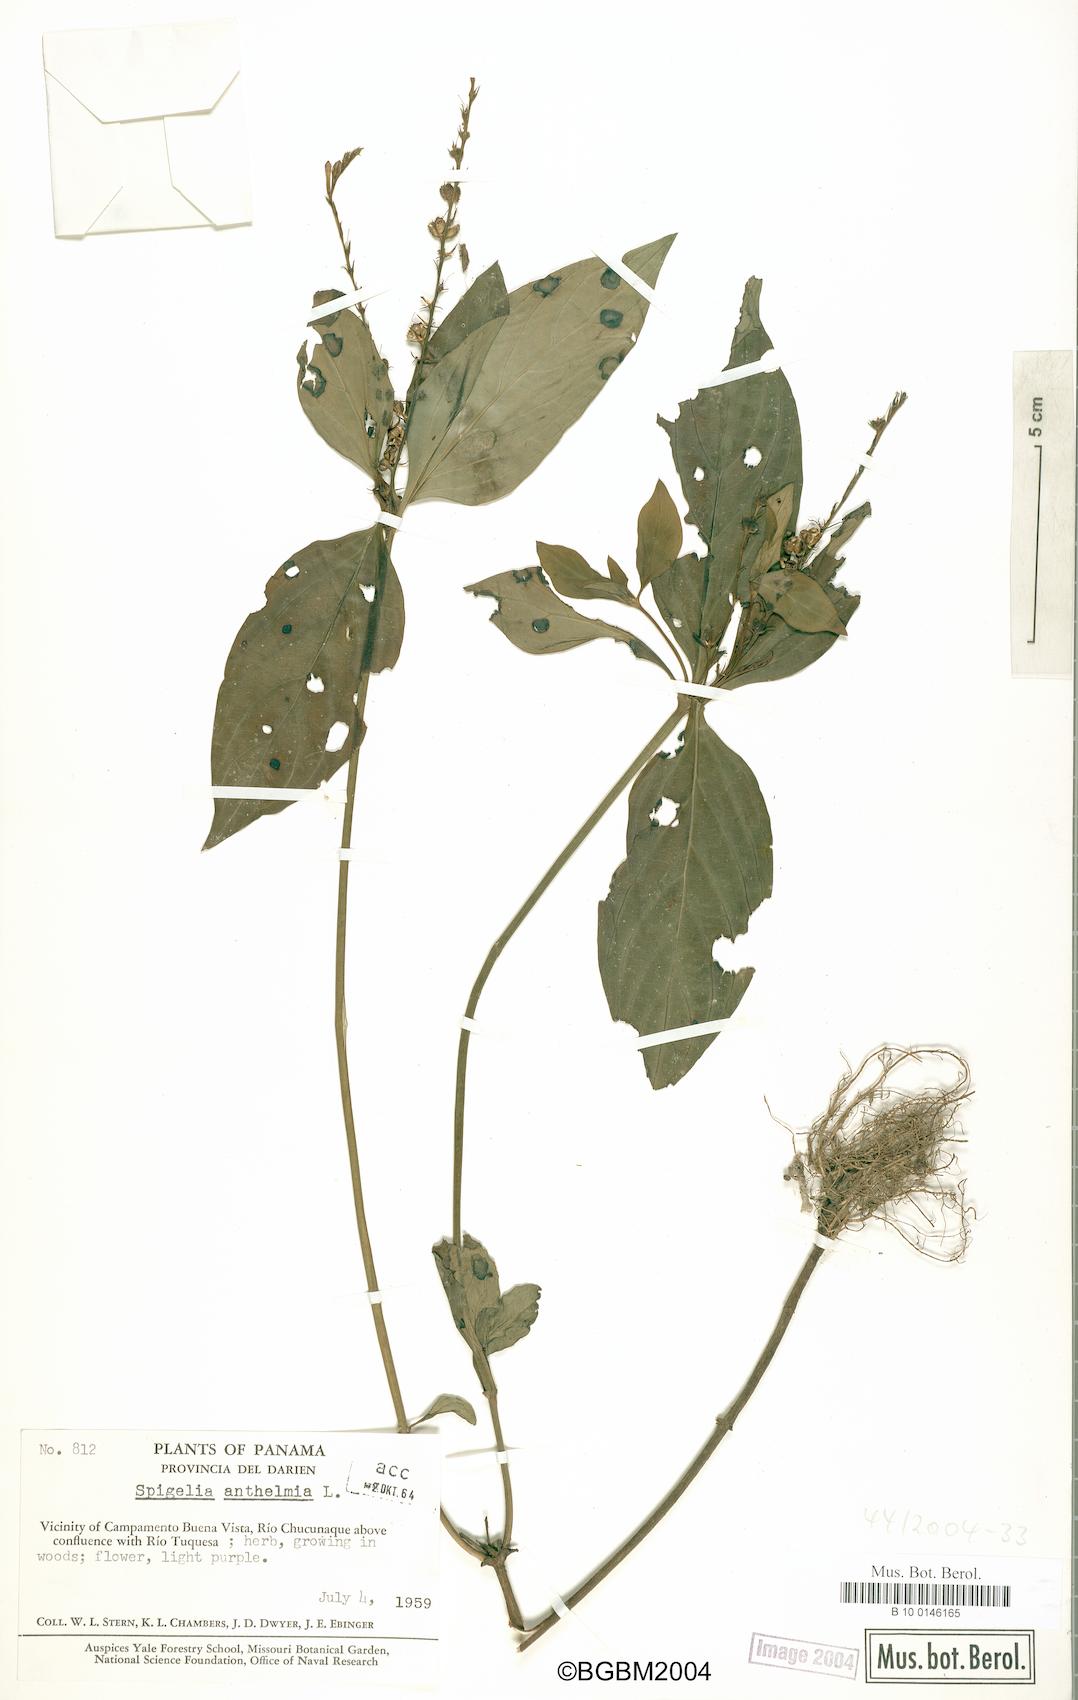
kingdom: Plantae
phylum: Tracheophyta
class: Magnoliopsida
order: Gentianales
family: Loganiaceae
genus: Spigelia
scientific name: Spigelia anthelmia
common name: West indian-pink
